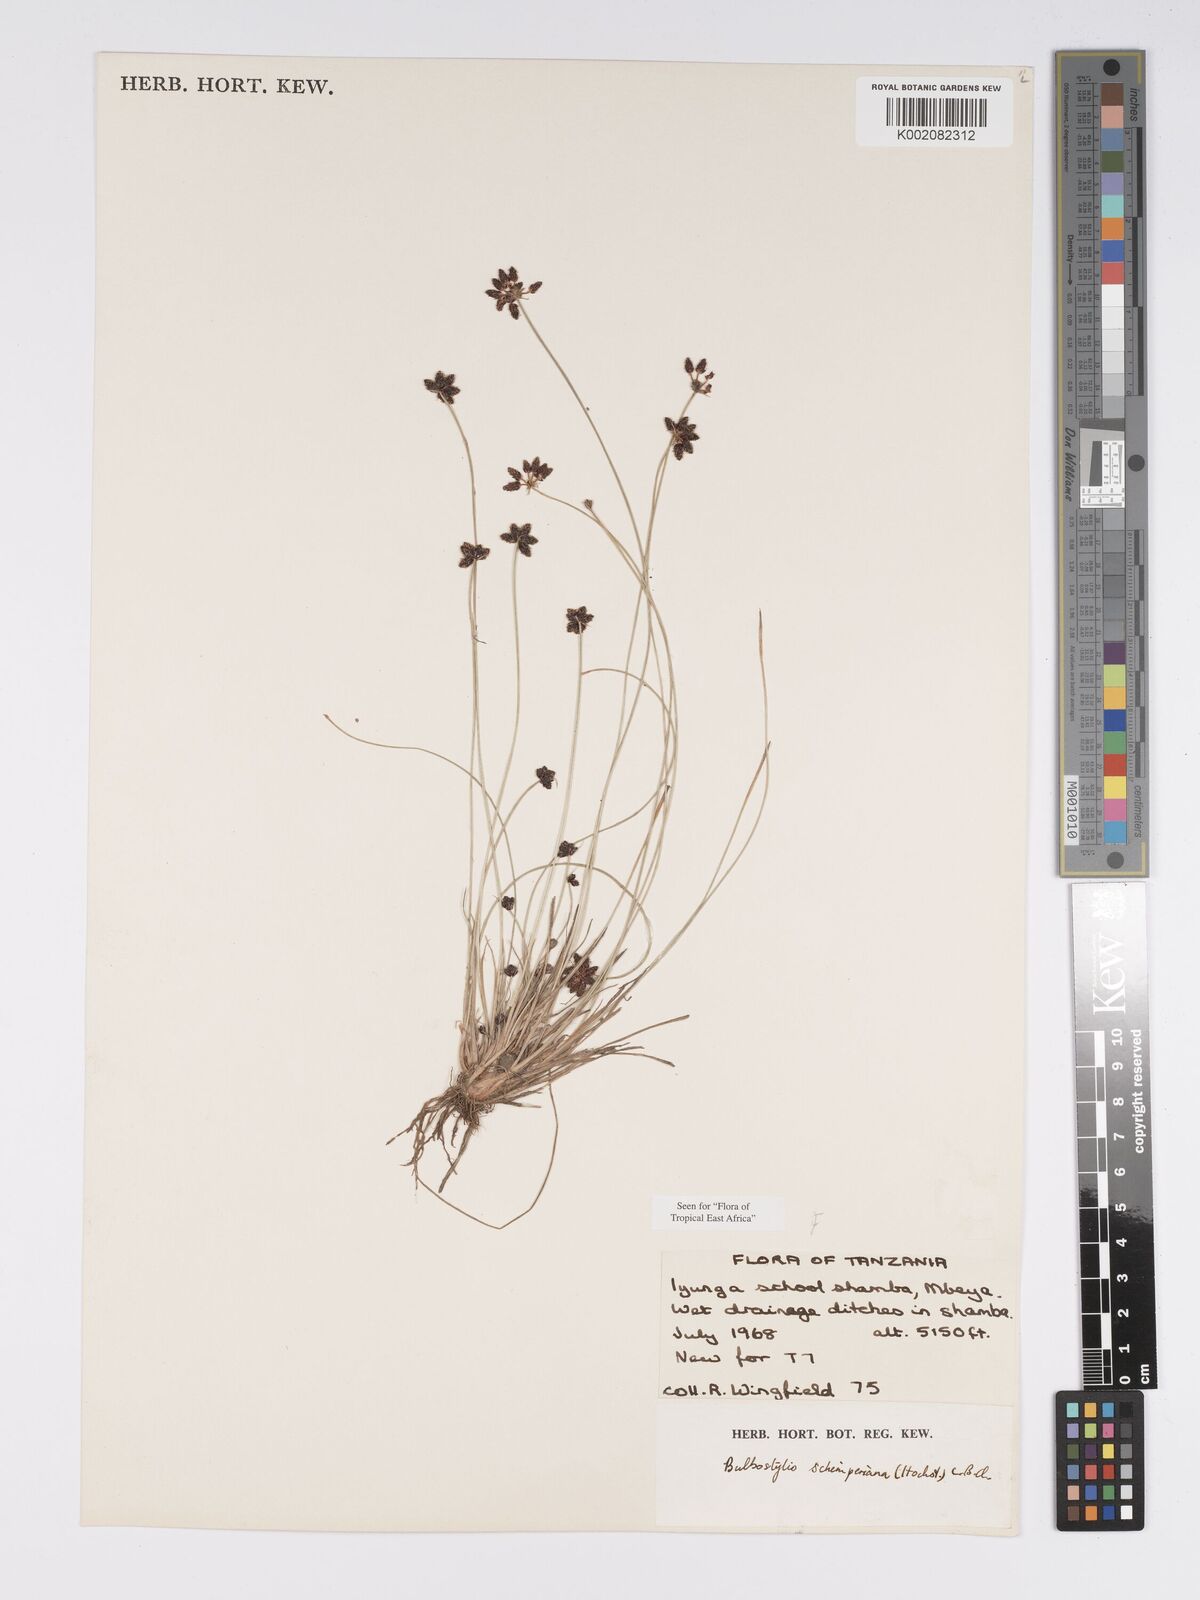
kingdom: Plantae
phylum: Tracheophyta
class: Liliopsida
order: Poales
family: Cyperaceae
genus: Bulbostylis
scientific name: Bulbostylis schimperiana
